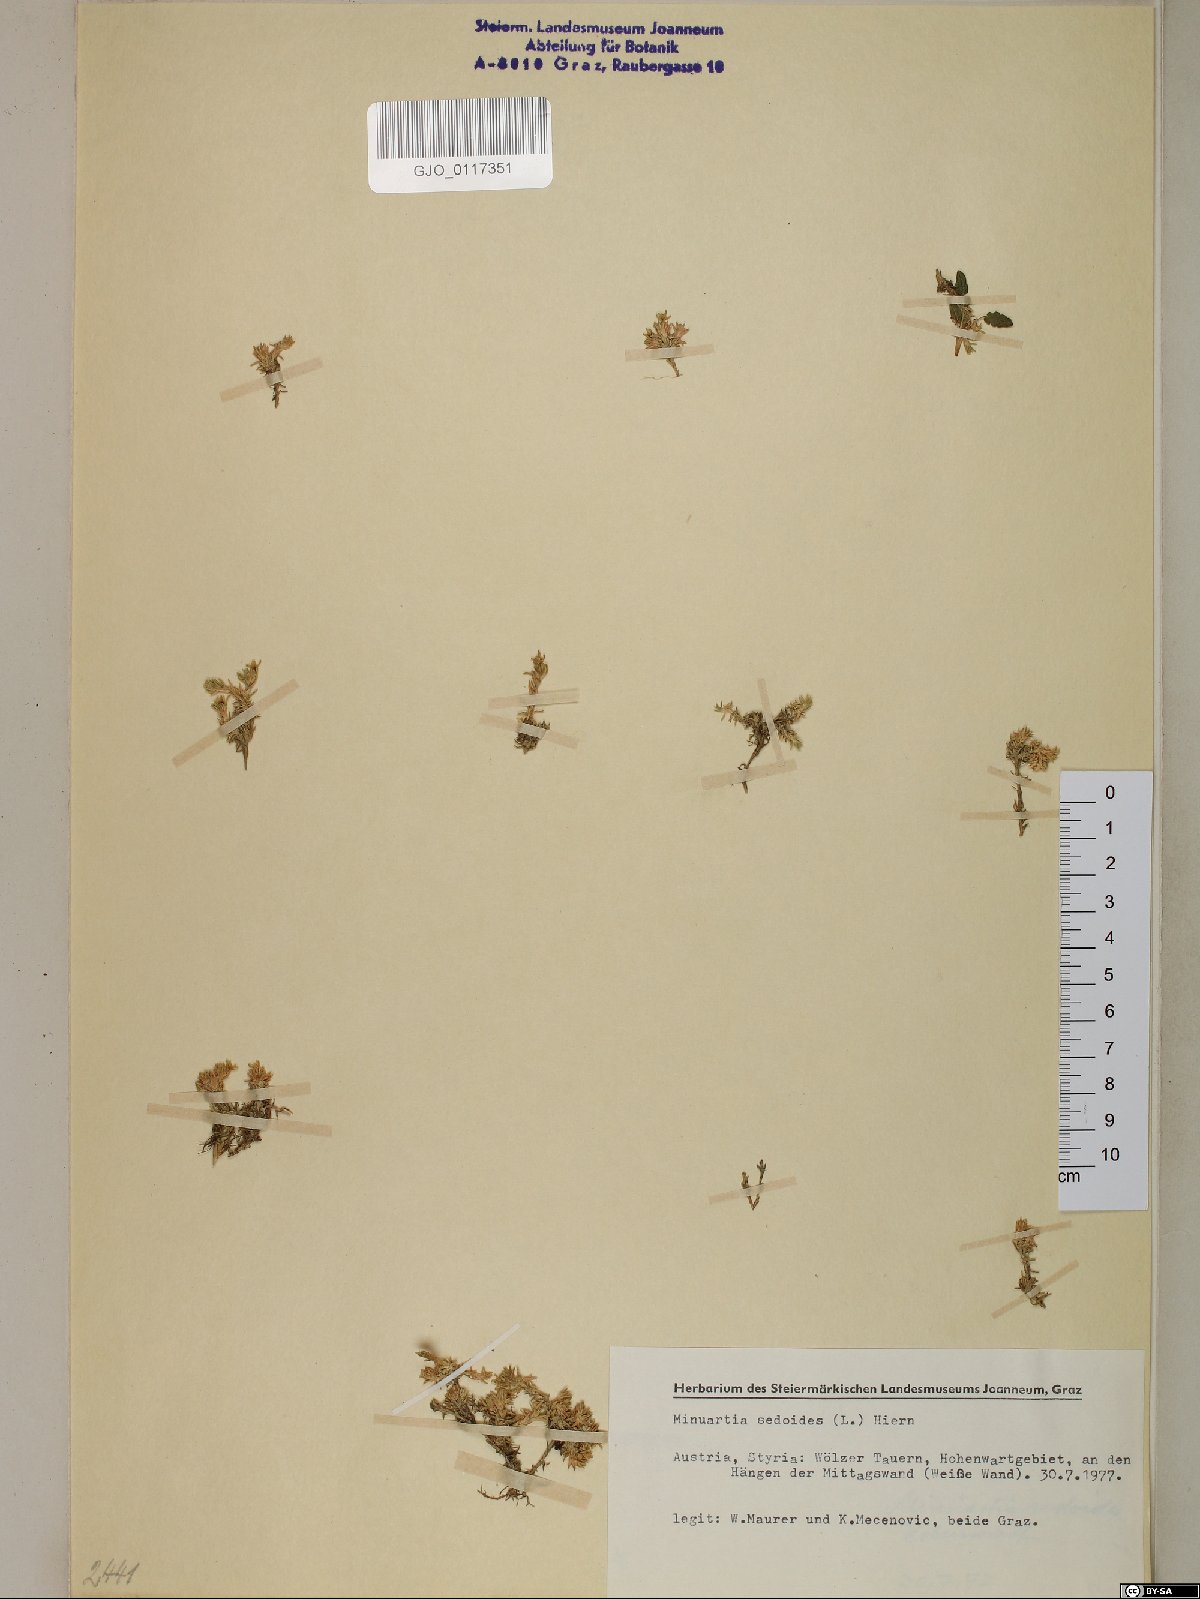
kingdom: Plantae
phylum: Tracheophyta
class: Magnoliopsida
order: Caryophyllales
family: Caryophyllaceae
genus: Cherleria
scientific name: Cherleria sedoides
